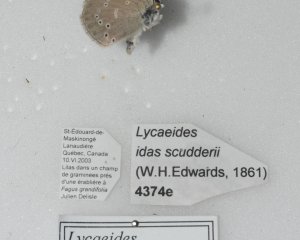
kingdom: Animalia
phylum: Arthropoda
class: Insecta
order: Lepidoptera
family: Lycaenidae
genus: Glaucopsyche
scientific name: Glaucopsyche lygdamus
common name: Silvery Blue
